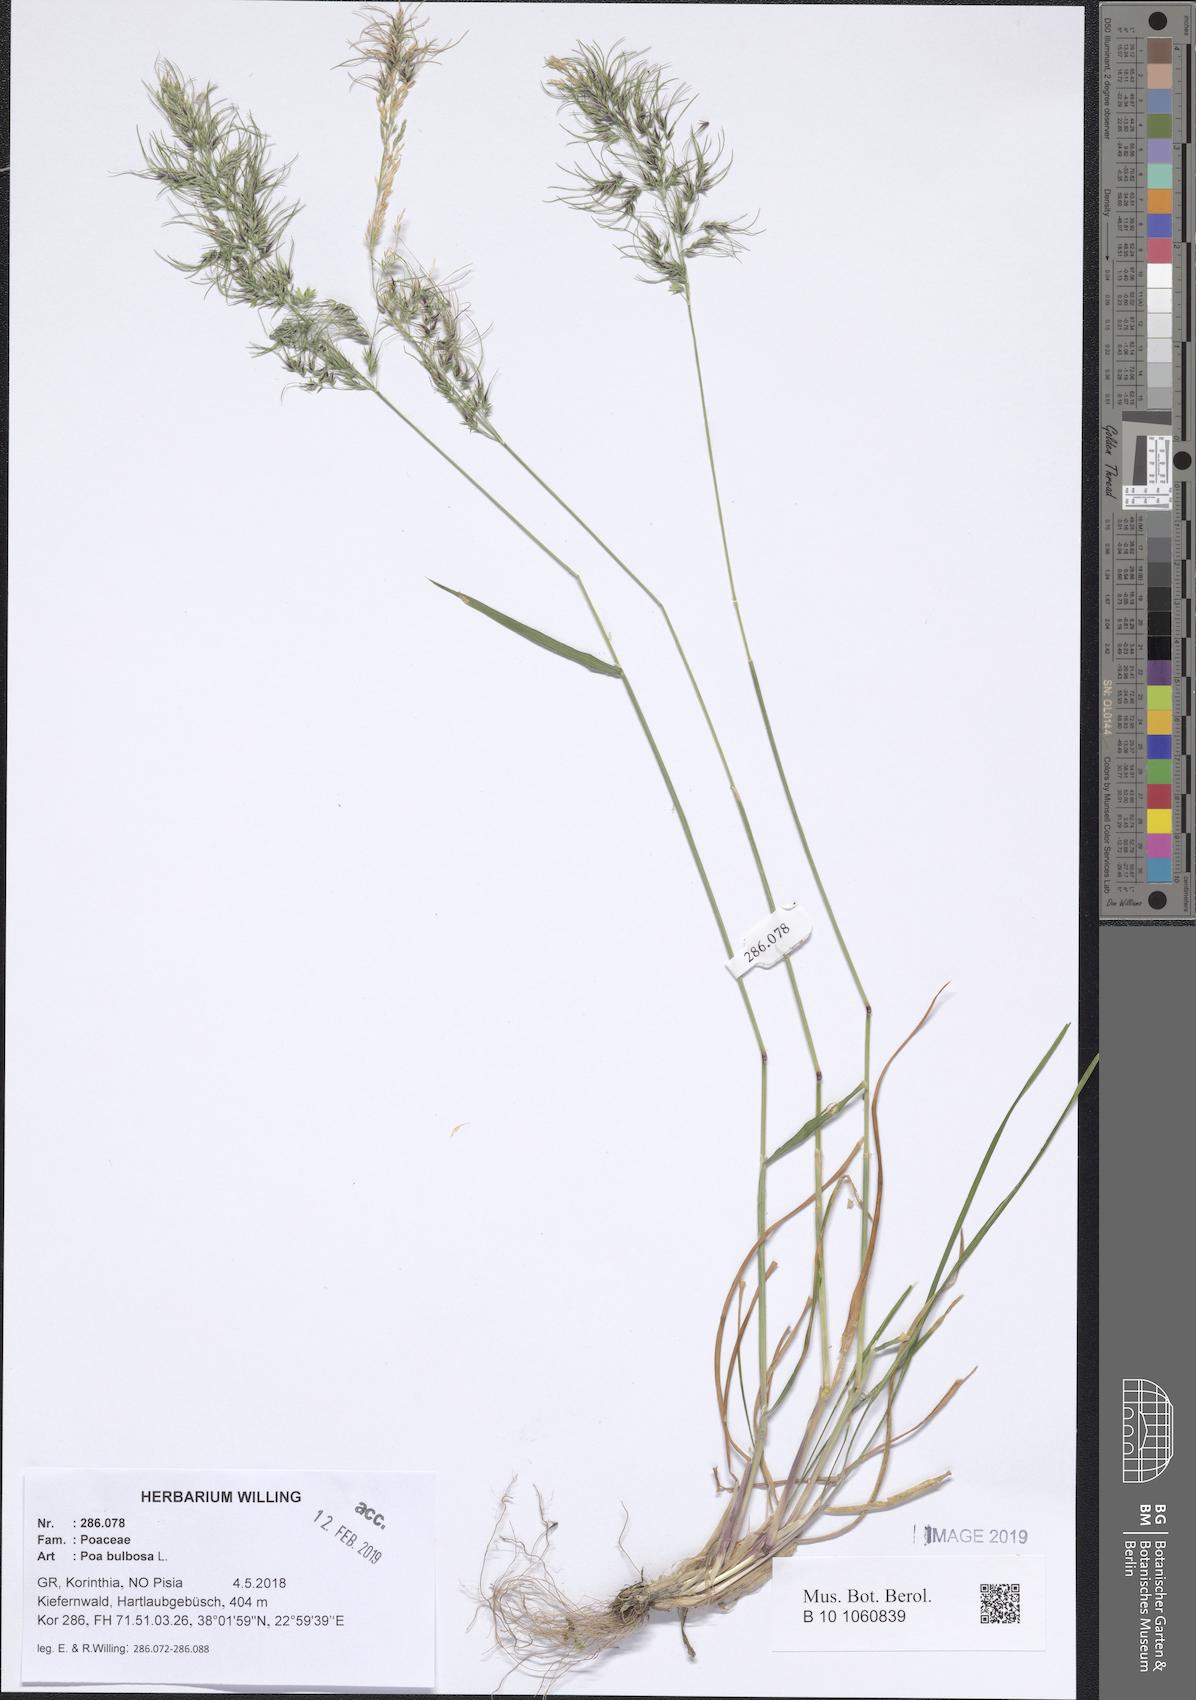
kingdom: Plantae
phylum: Tracheophyta
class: Liliopsida
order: Poales
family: Poaceae
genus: Poa
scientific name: Poa bulbosa
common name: Bulbous bluegrass
